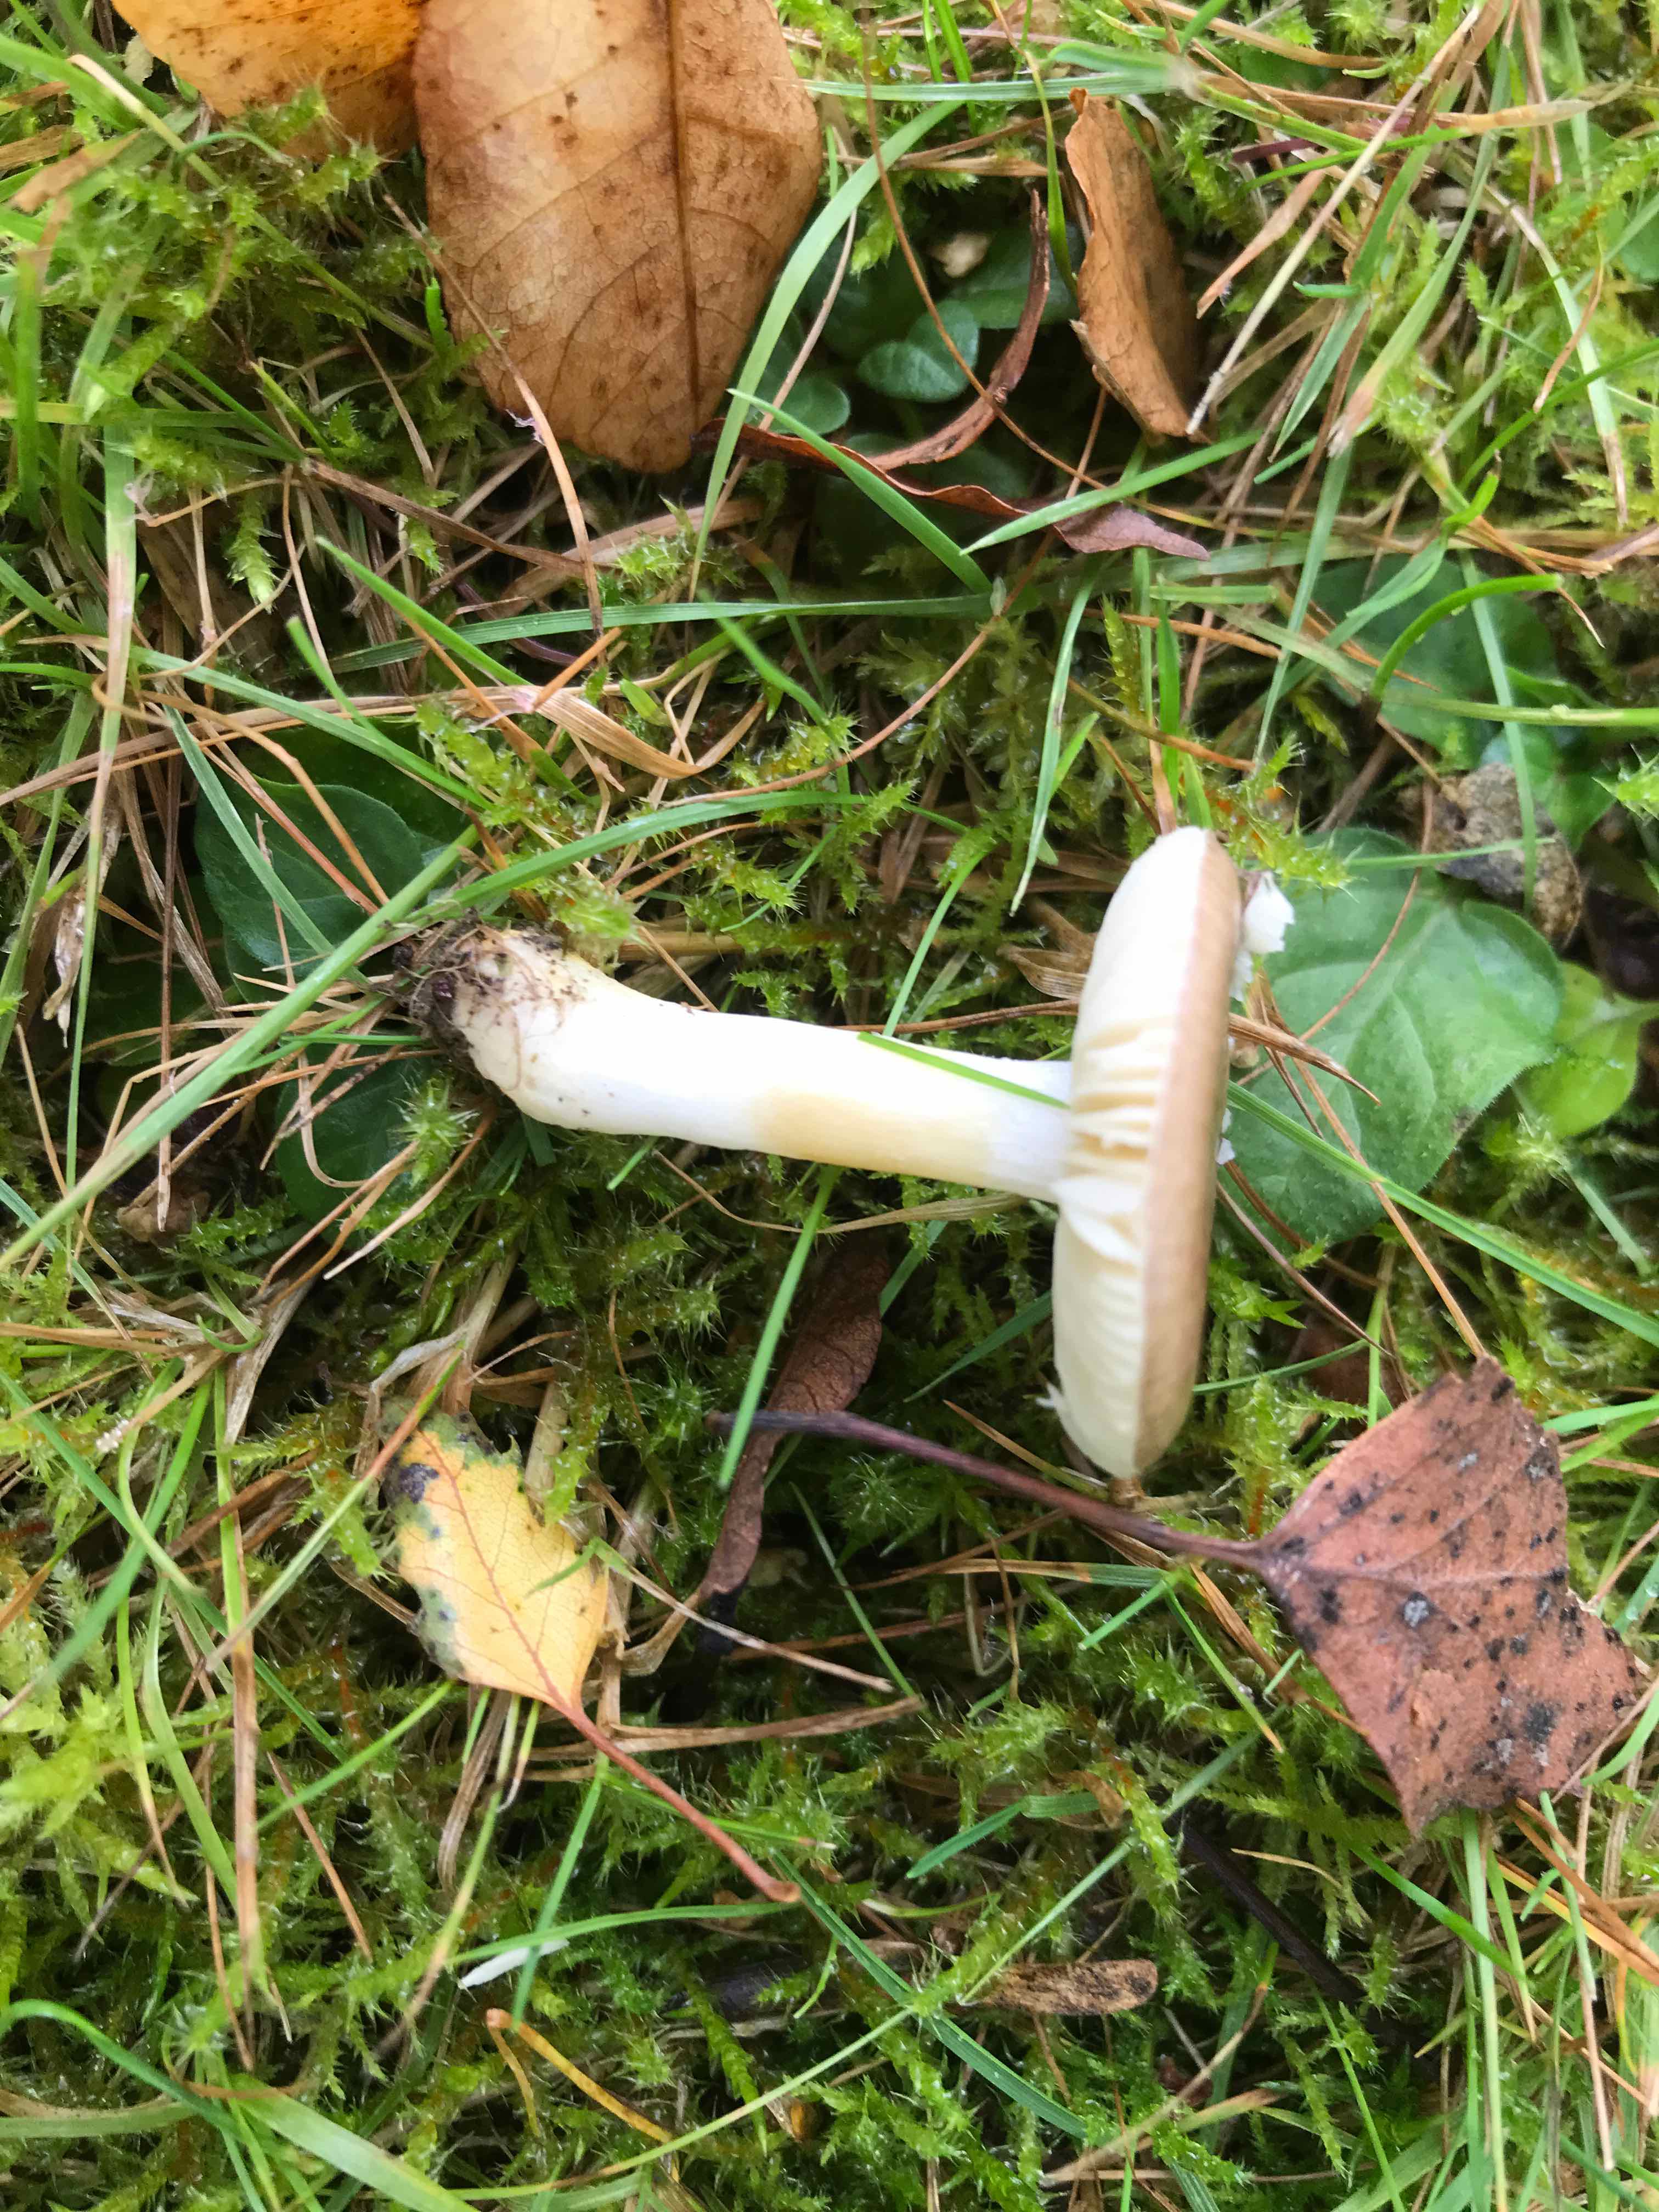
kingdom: Fungi
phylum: Basidiomycota
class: Agaricomycetes
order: Russulales
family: Russulaceae
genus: Russula
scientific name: Russula
